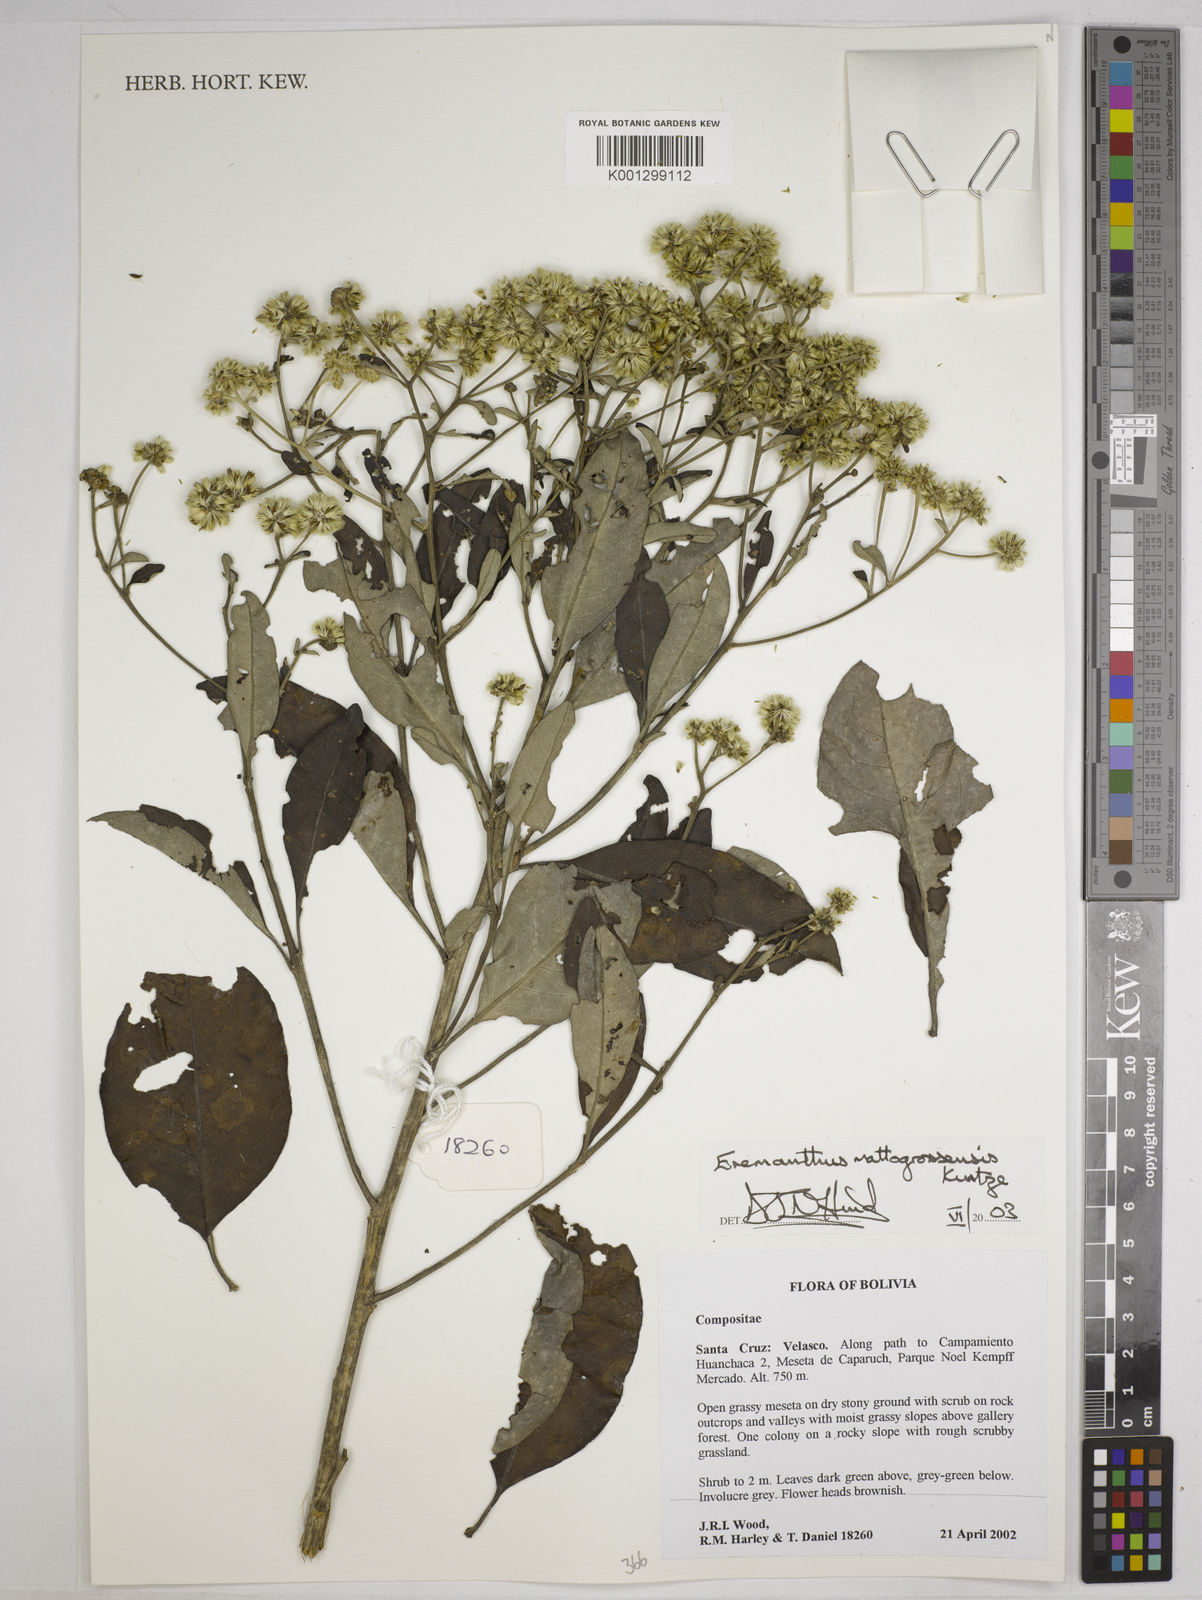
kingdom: Plantae
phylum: Tracheophyta
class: Magnoliopsida
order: Asterales
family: Asteraceae
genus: Eremanthus
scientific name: Eremanthus mattogrossensis
